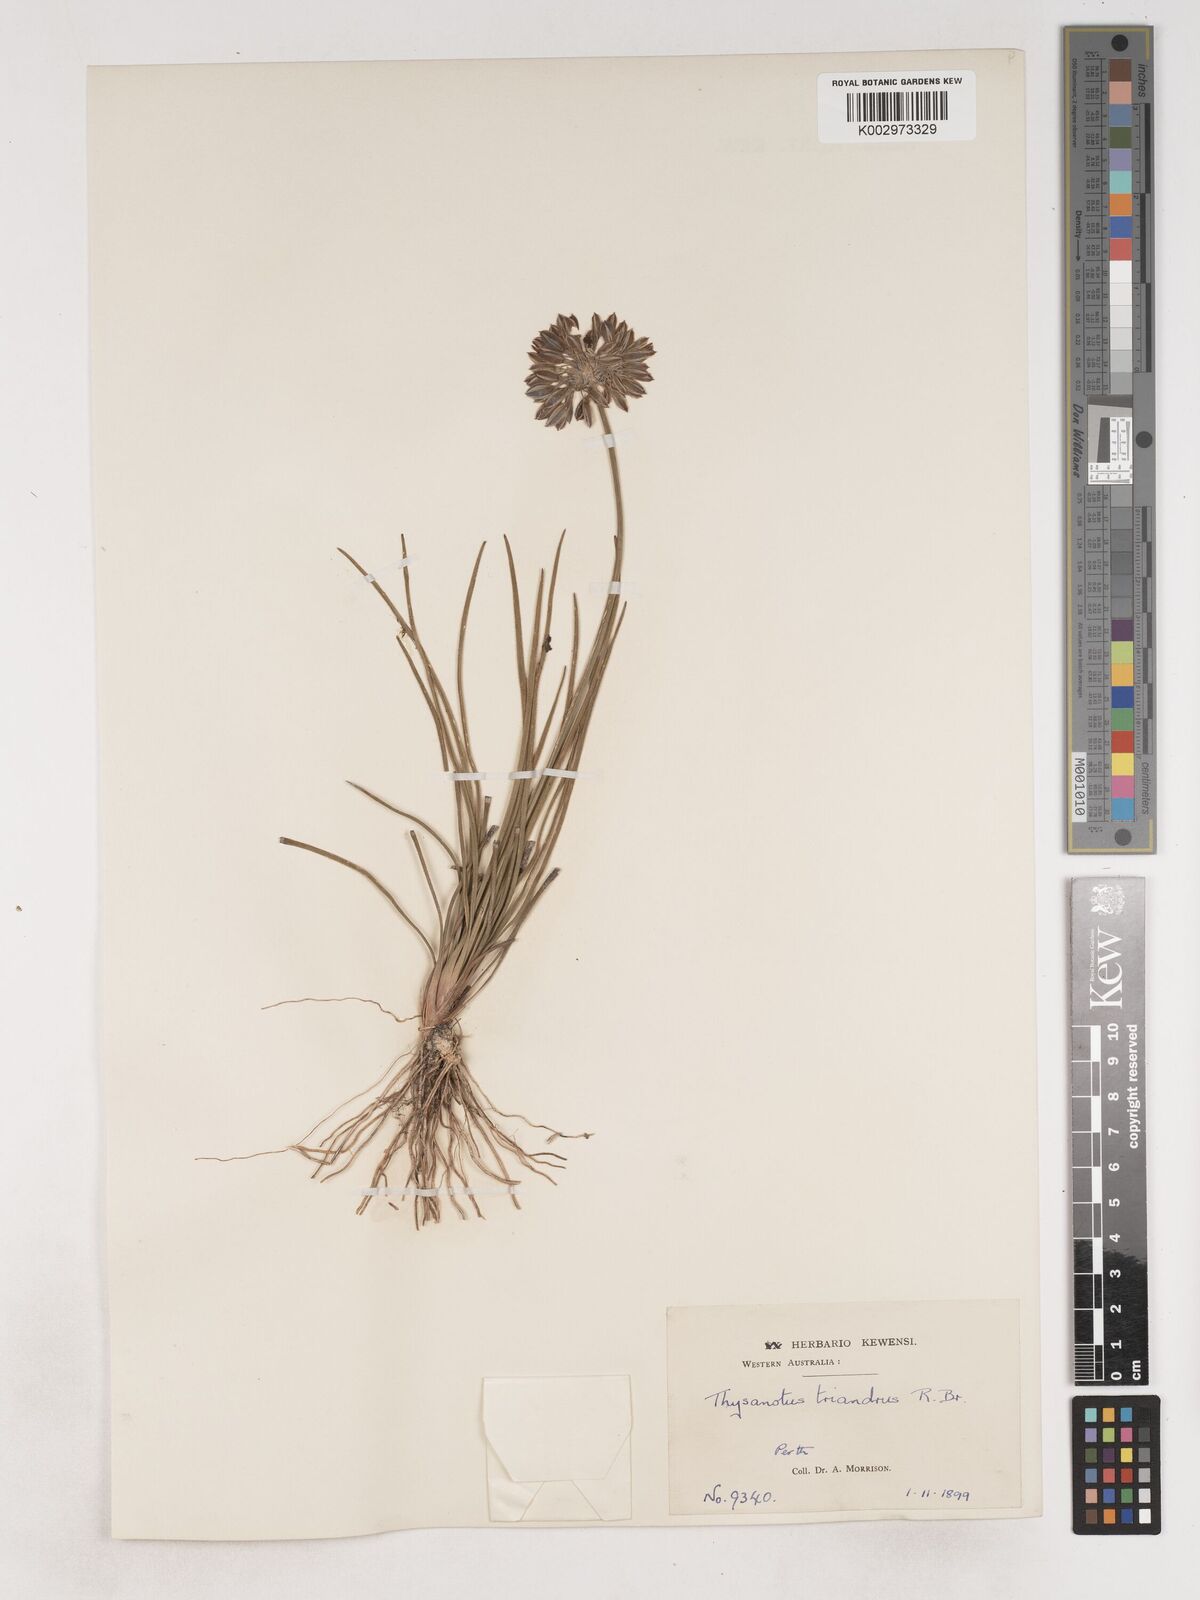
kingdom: Plantae
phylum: Tracheophyta
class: Liliopsida
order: Asparagales
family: Asparagaceae
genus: Thysanotus
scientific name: Thysanotus triandrus
